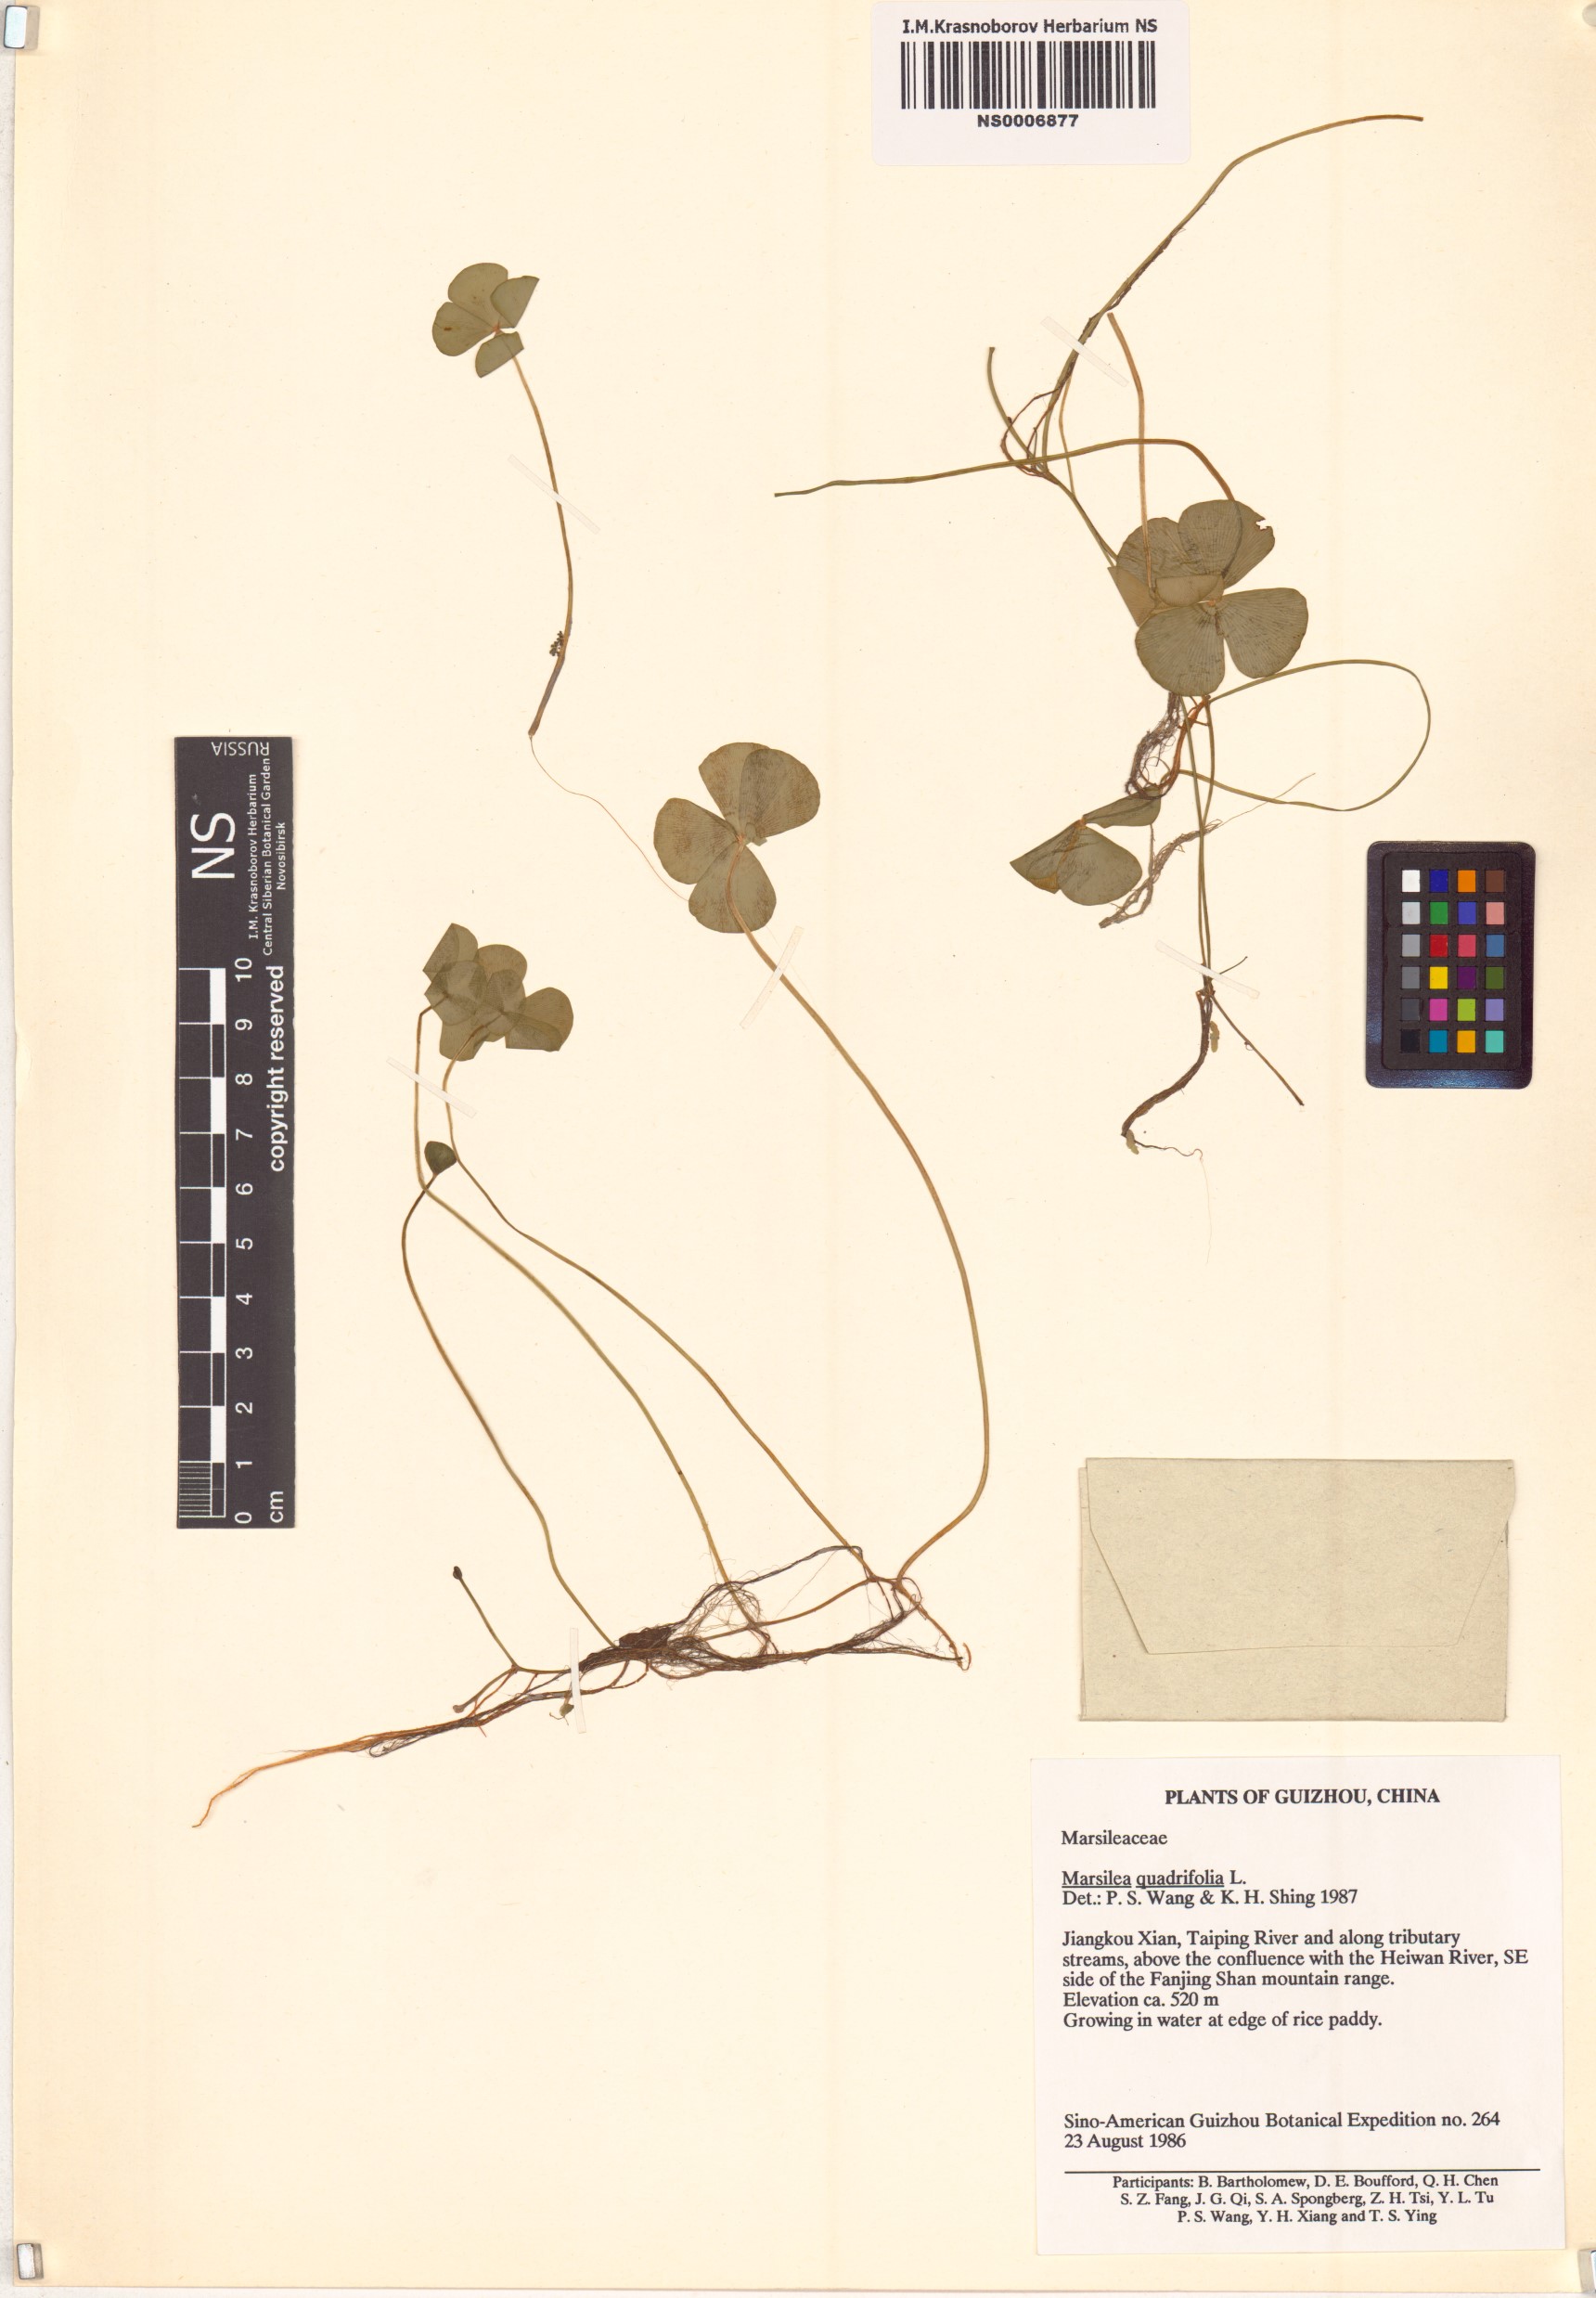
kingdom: Plantae
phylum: Tracheophyta
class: Polypodiopsida
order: Salviniales
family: Marsileaceae
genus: Marsilea
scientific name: Marsilea quadrifolia
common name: Water shamrock
